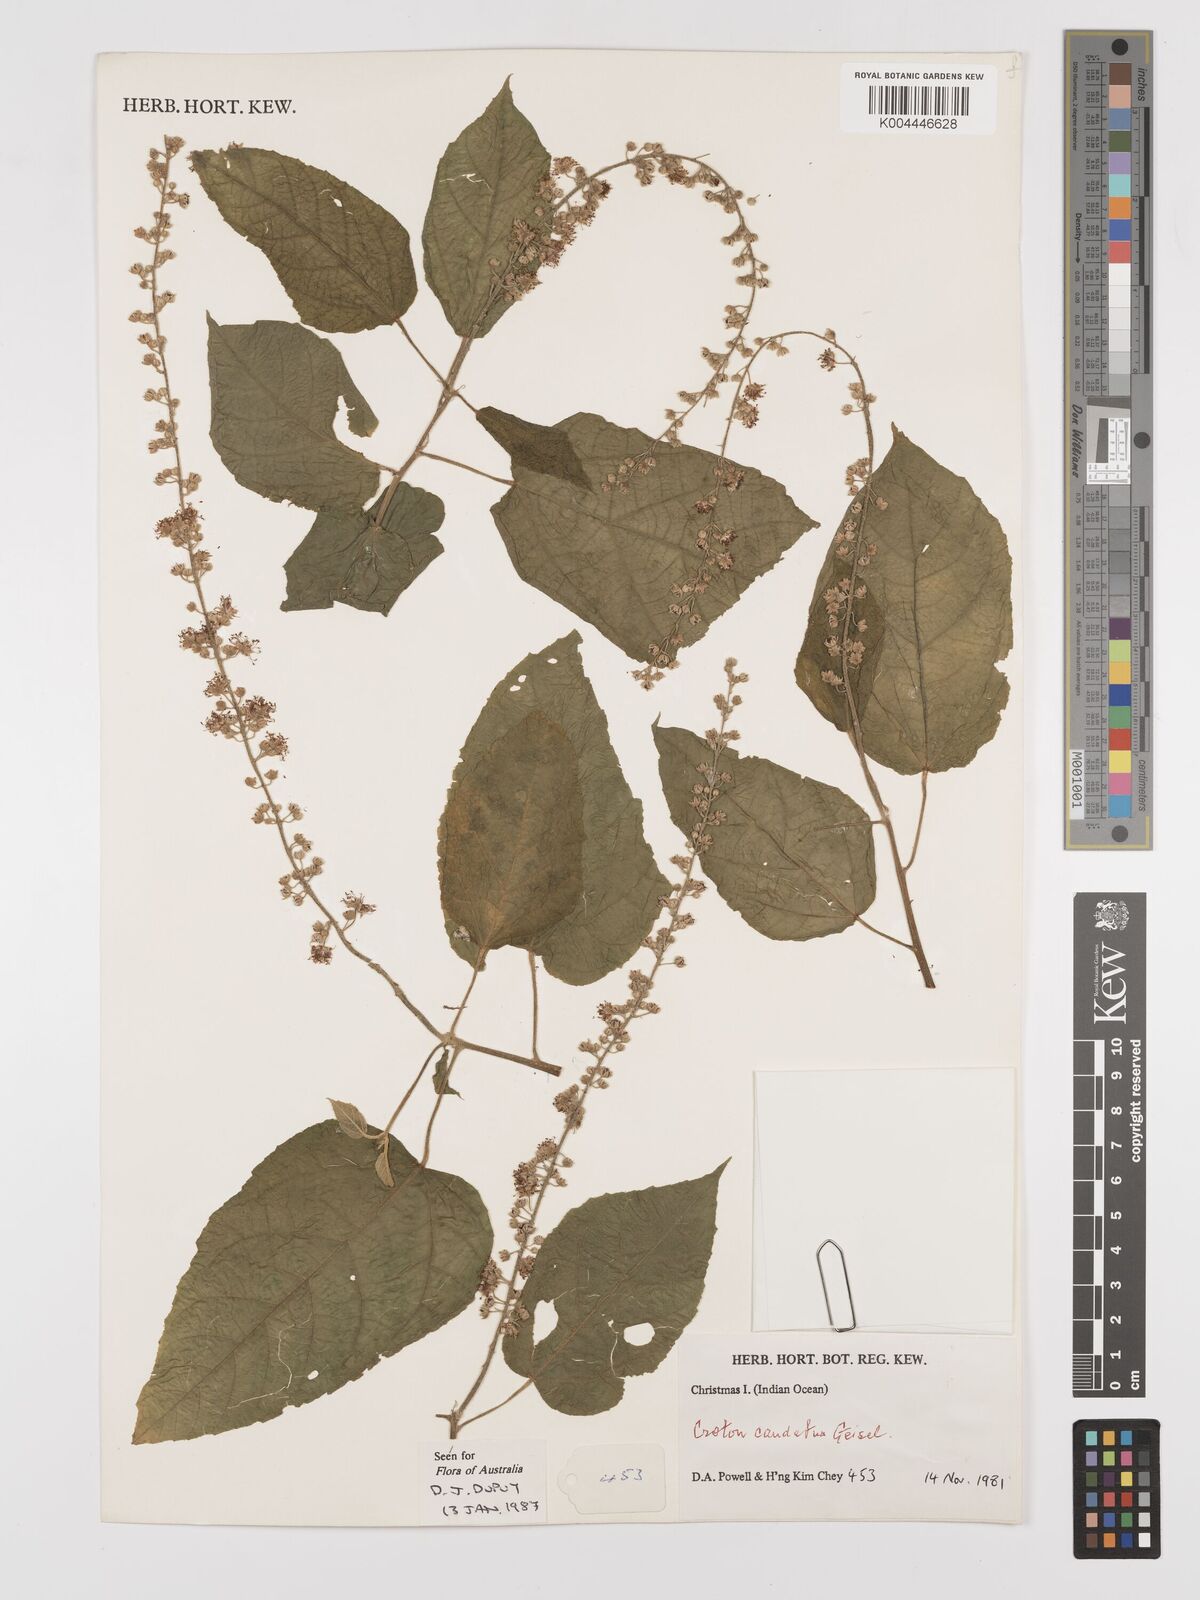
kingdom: Plantae
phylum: Tracheophyta
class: Magnoliopsida
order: Malpighiales
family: Euphorbiaceae
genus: Croton
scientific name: Croton caudatus
